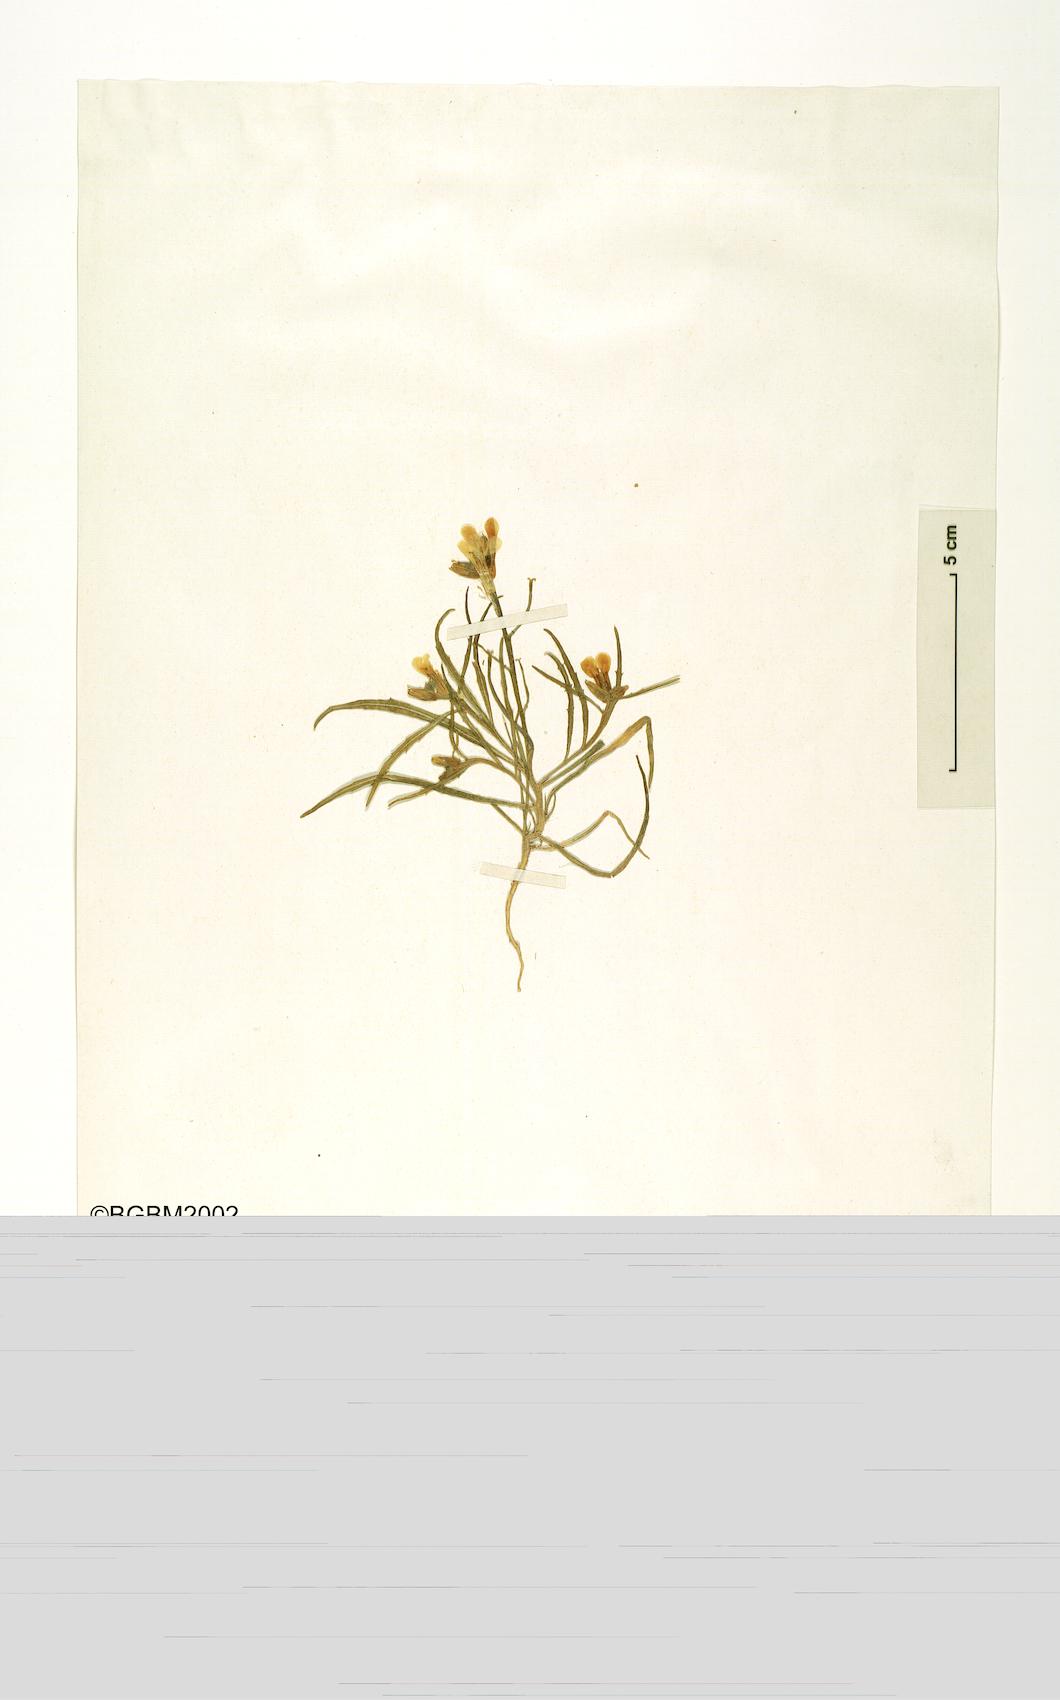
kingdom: Plantae
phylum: Tracheophyta
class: Magnoliopsida
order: Brassicales
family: Brassicaceae
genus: Erysimum
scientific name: Erysimum tenellum
